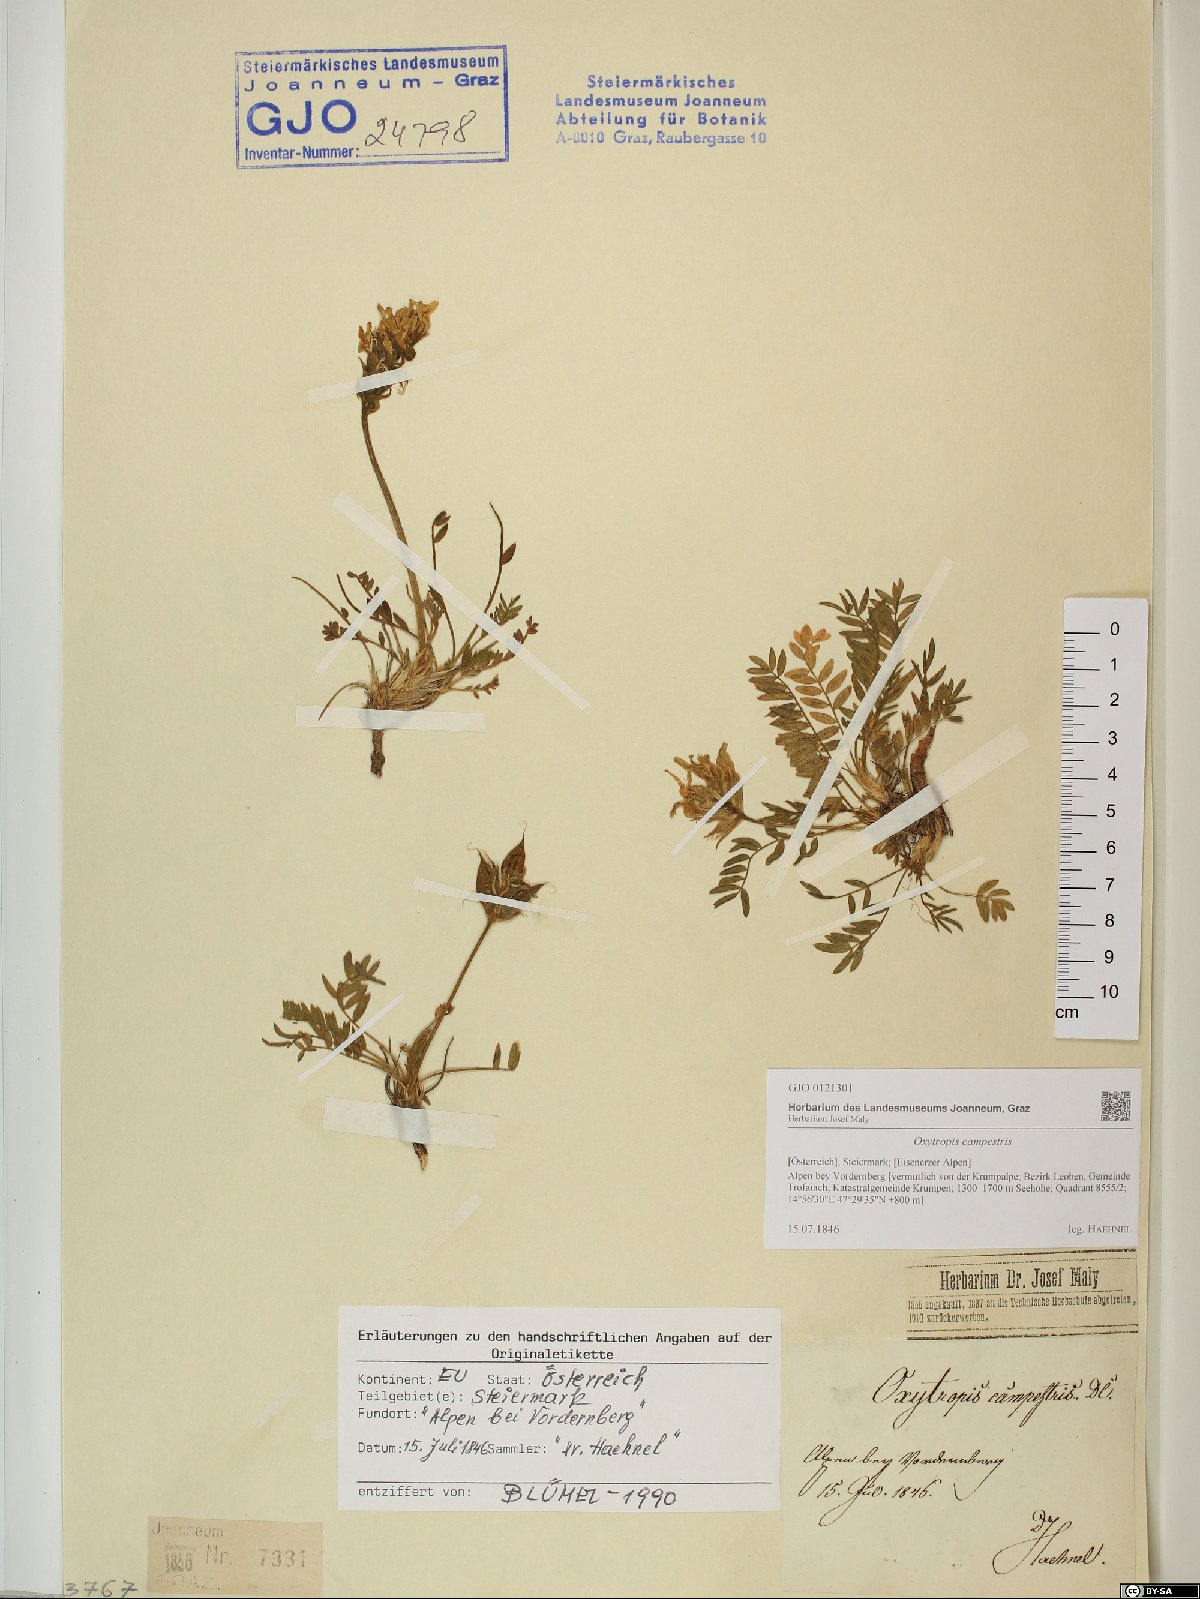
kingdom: Plantae
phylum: Tracheophyta
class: Magnoliopsida
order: Fabales
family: Fabaceae
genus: Oxytropis
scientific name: Oxytropis campestris
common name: Field locoweed
